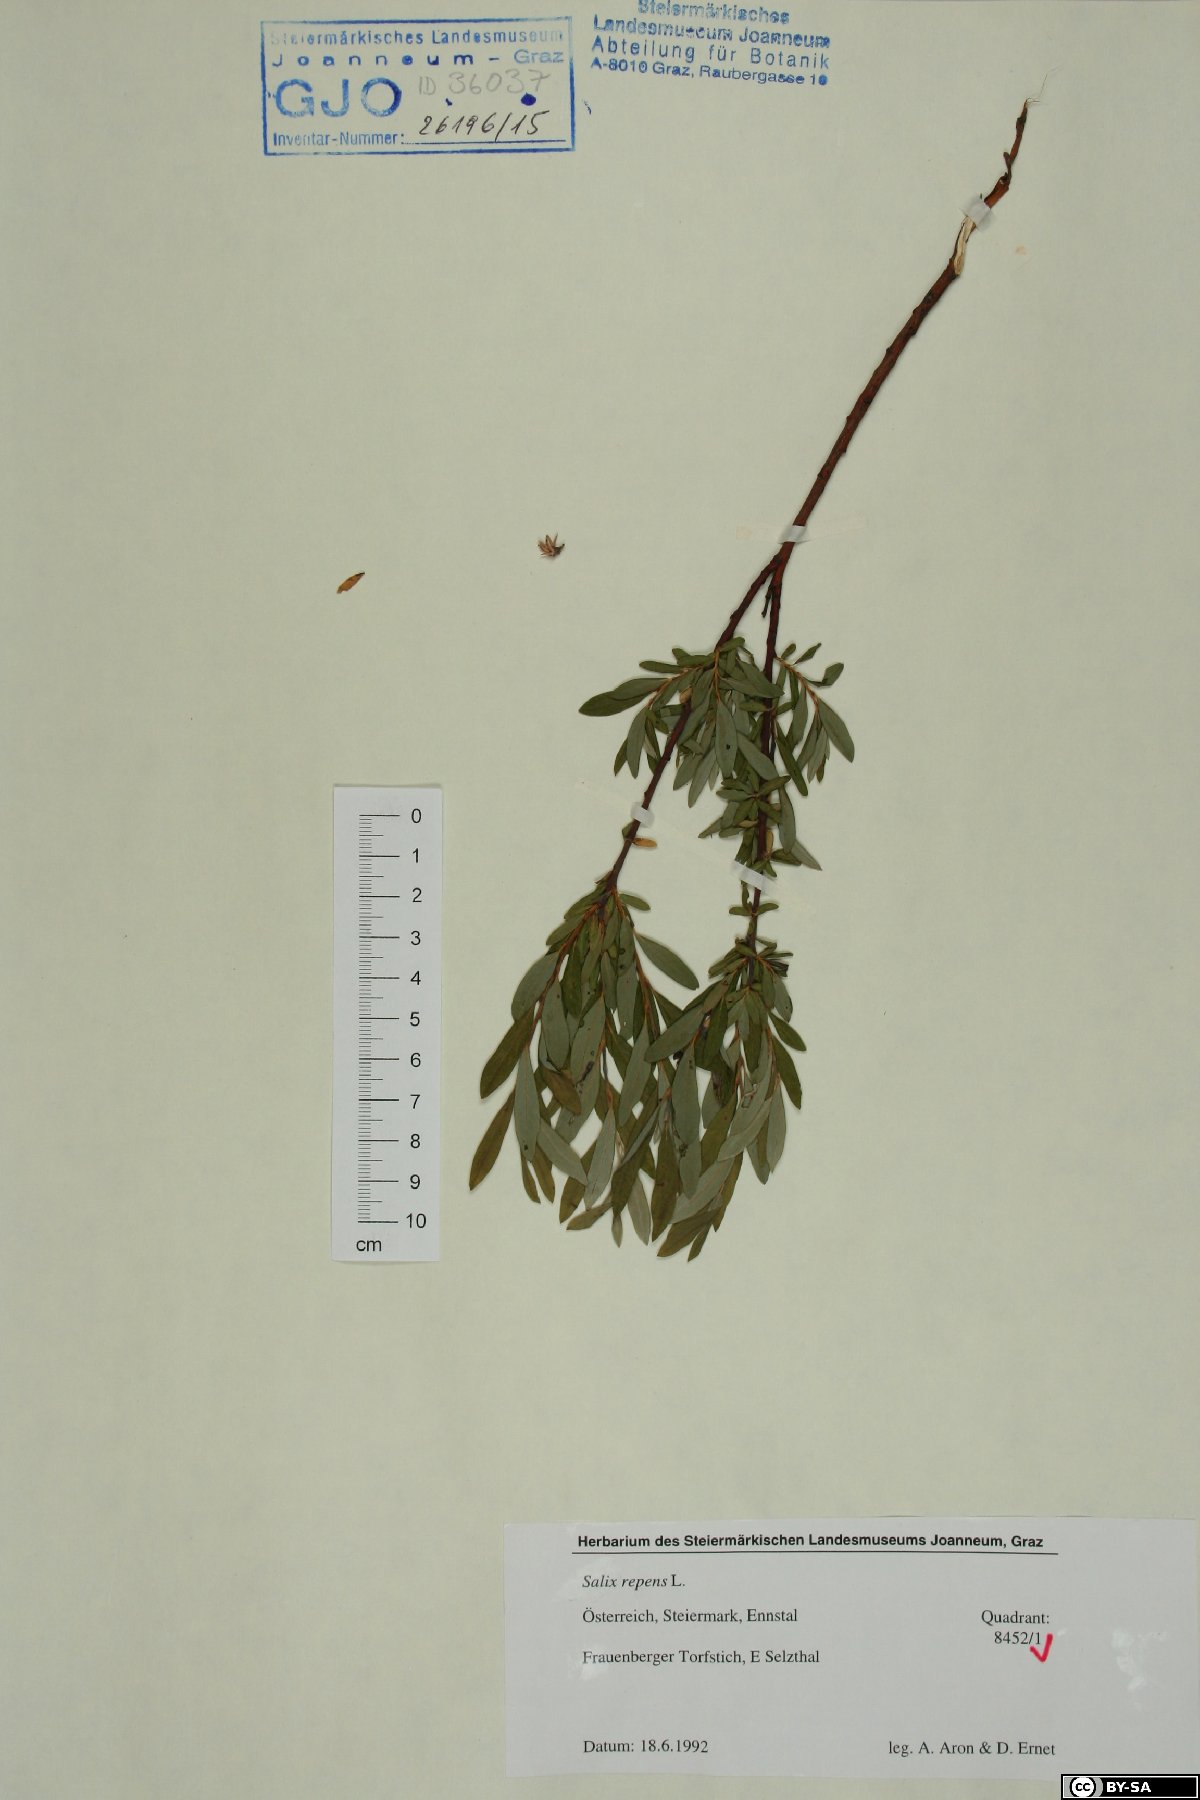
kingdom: Plantae
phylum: Tracheophyta
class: Magnoliopsida
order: Malpighiales
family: Salicaceae
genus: Salix
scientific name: Salix repens
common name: Creeping willow
